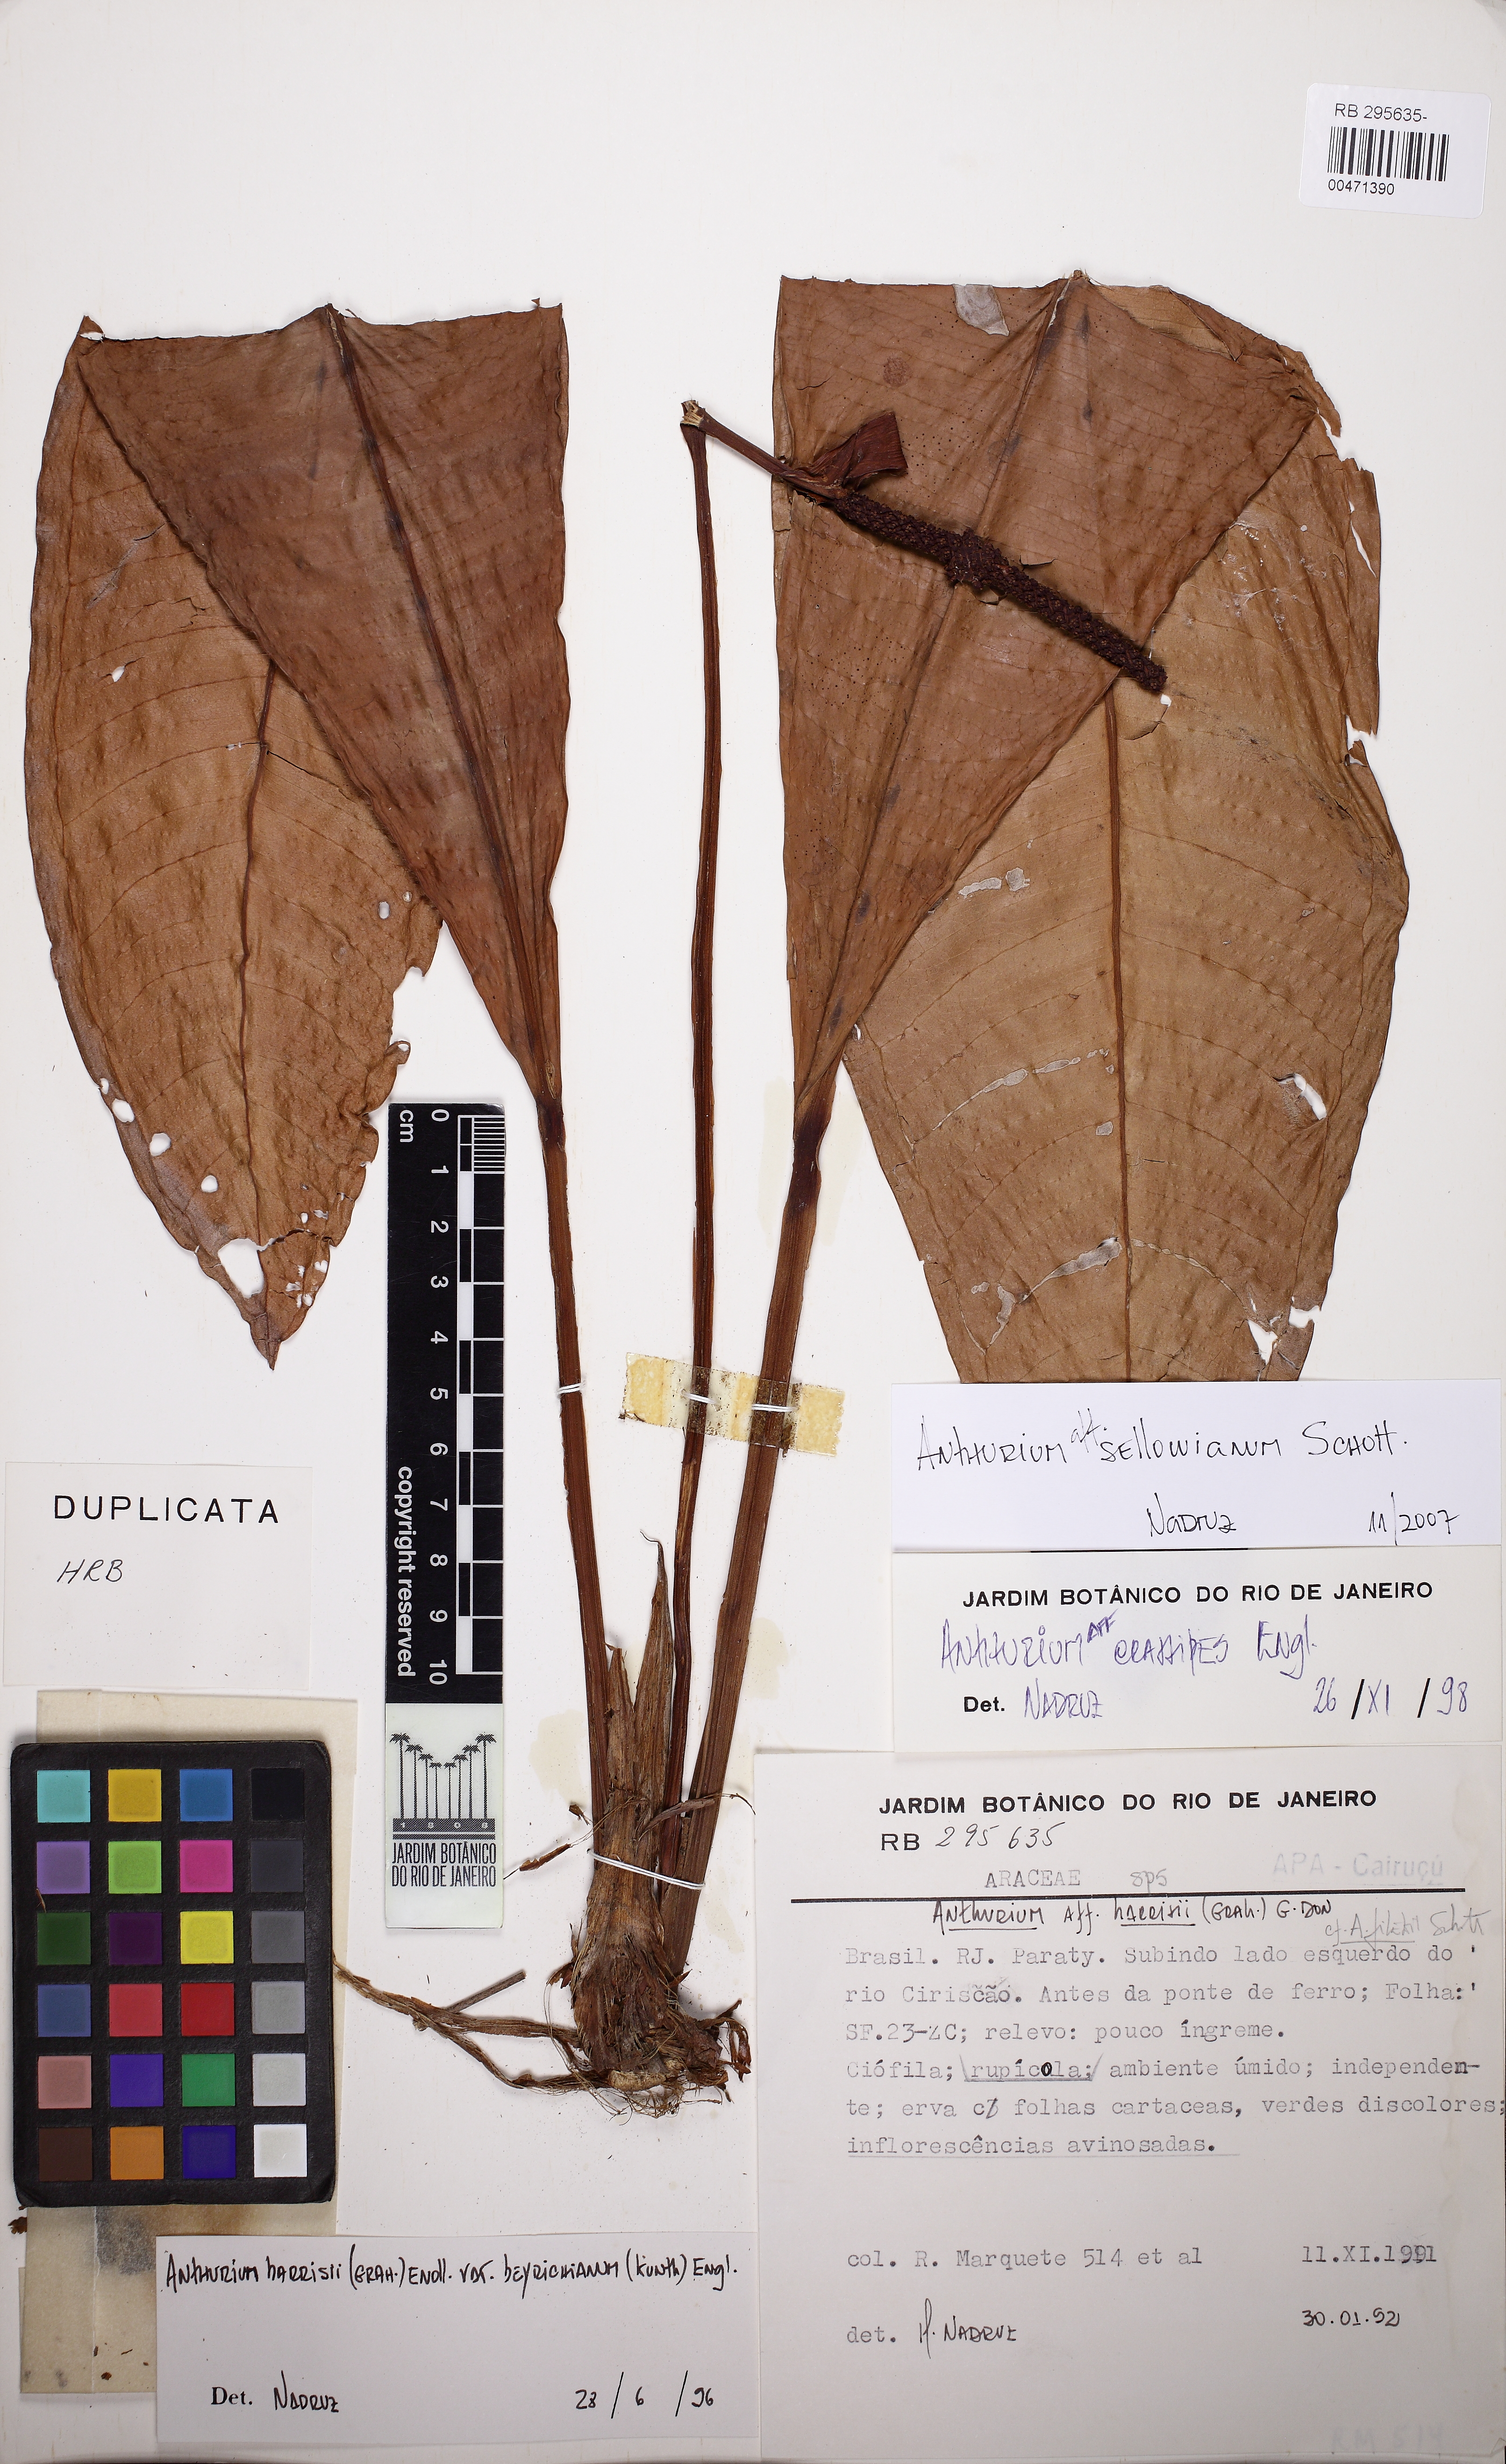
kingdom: Plantae
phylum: Tracheophyta
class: Liliopsida
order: Alismatales
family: Araceae
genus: Anthurium
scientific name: Anthurium sellowianum
